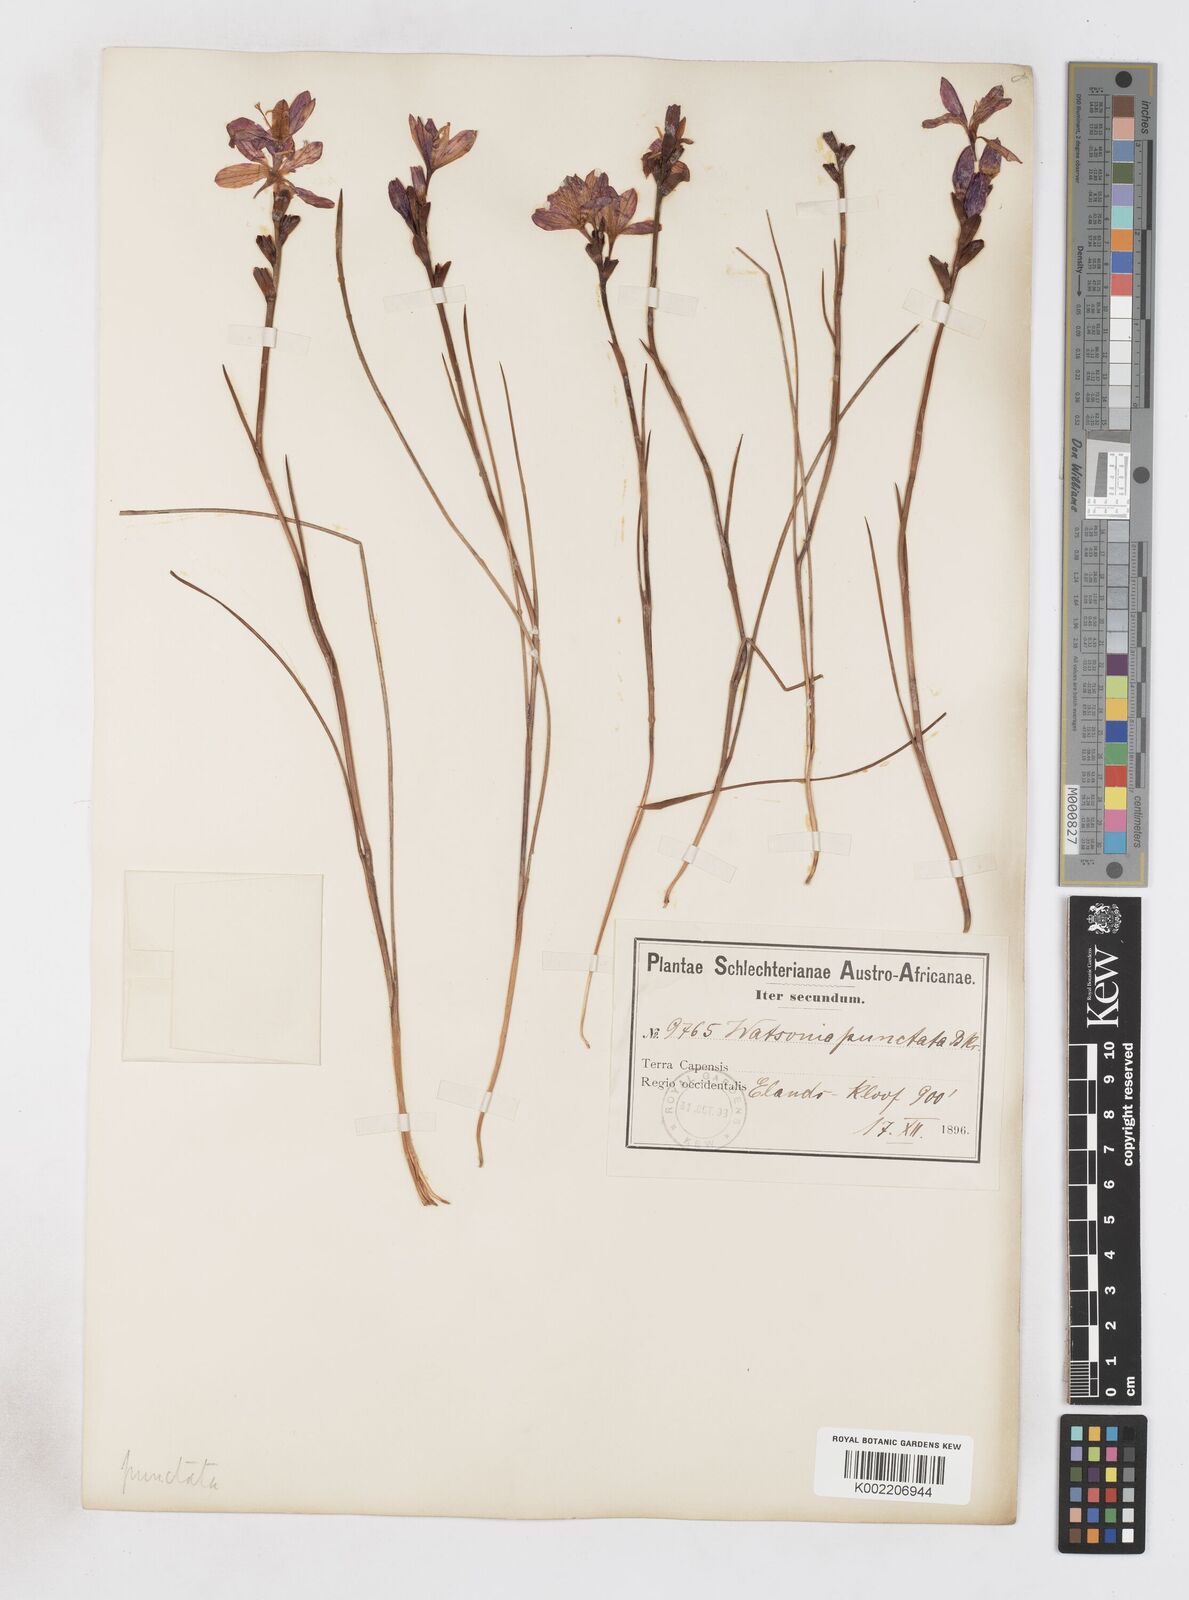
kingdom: Plantae
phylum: Tracheophyta
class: Liliopsida
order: Asparagales
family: Iridaceae
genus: Thereianthus
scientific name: Thereianthus spicatus
